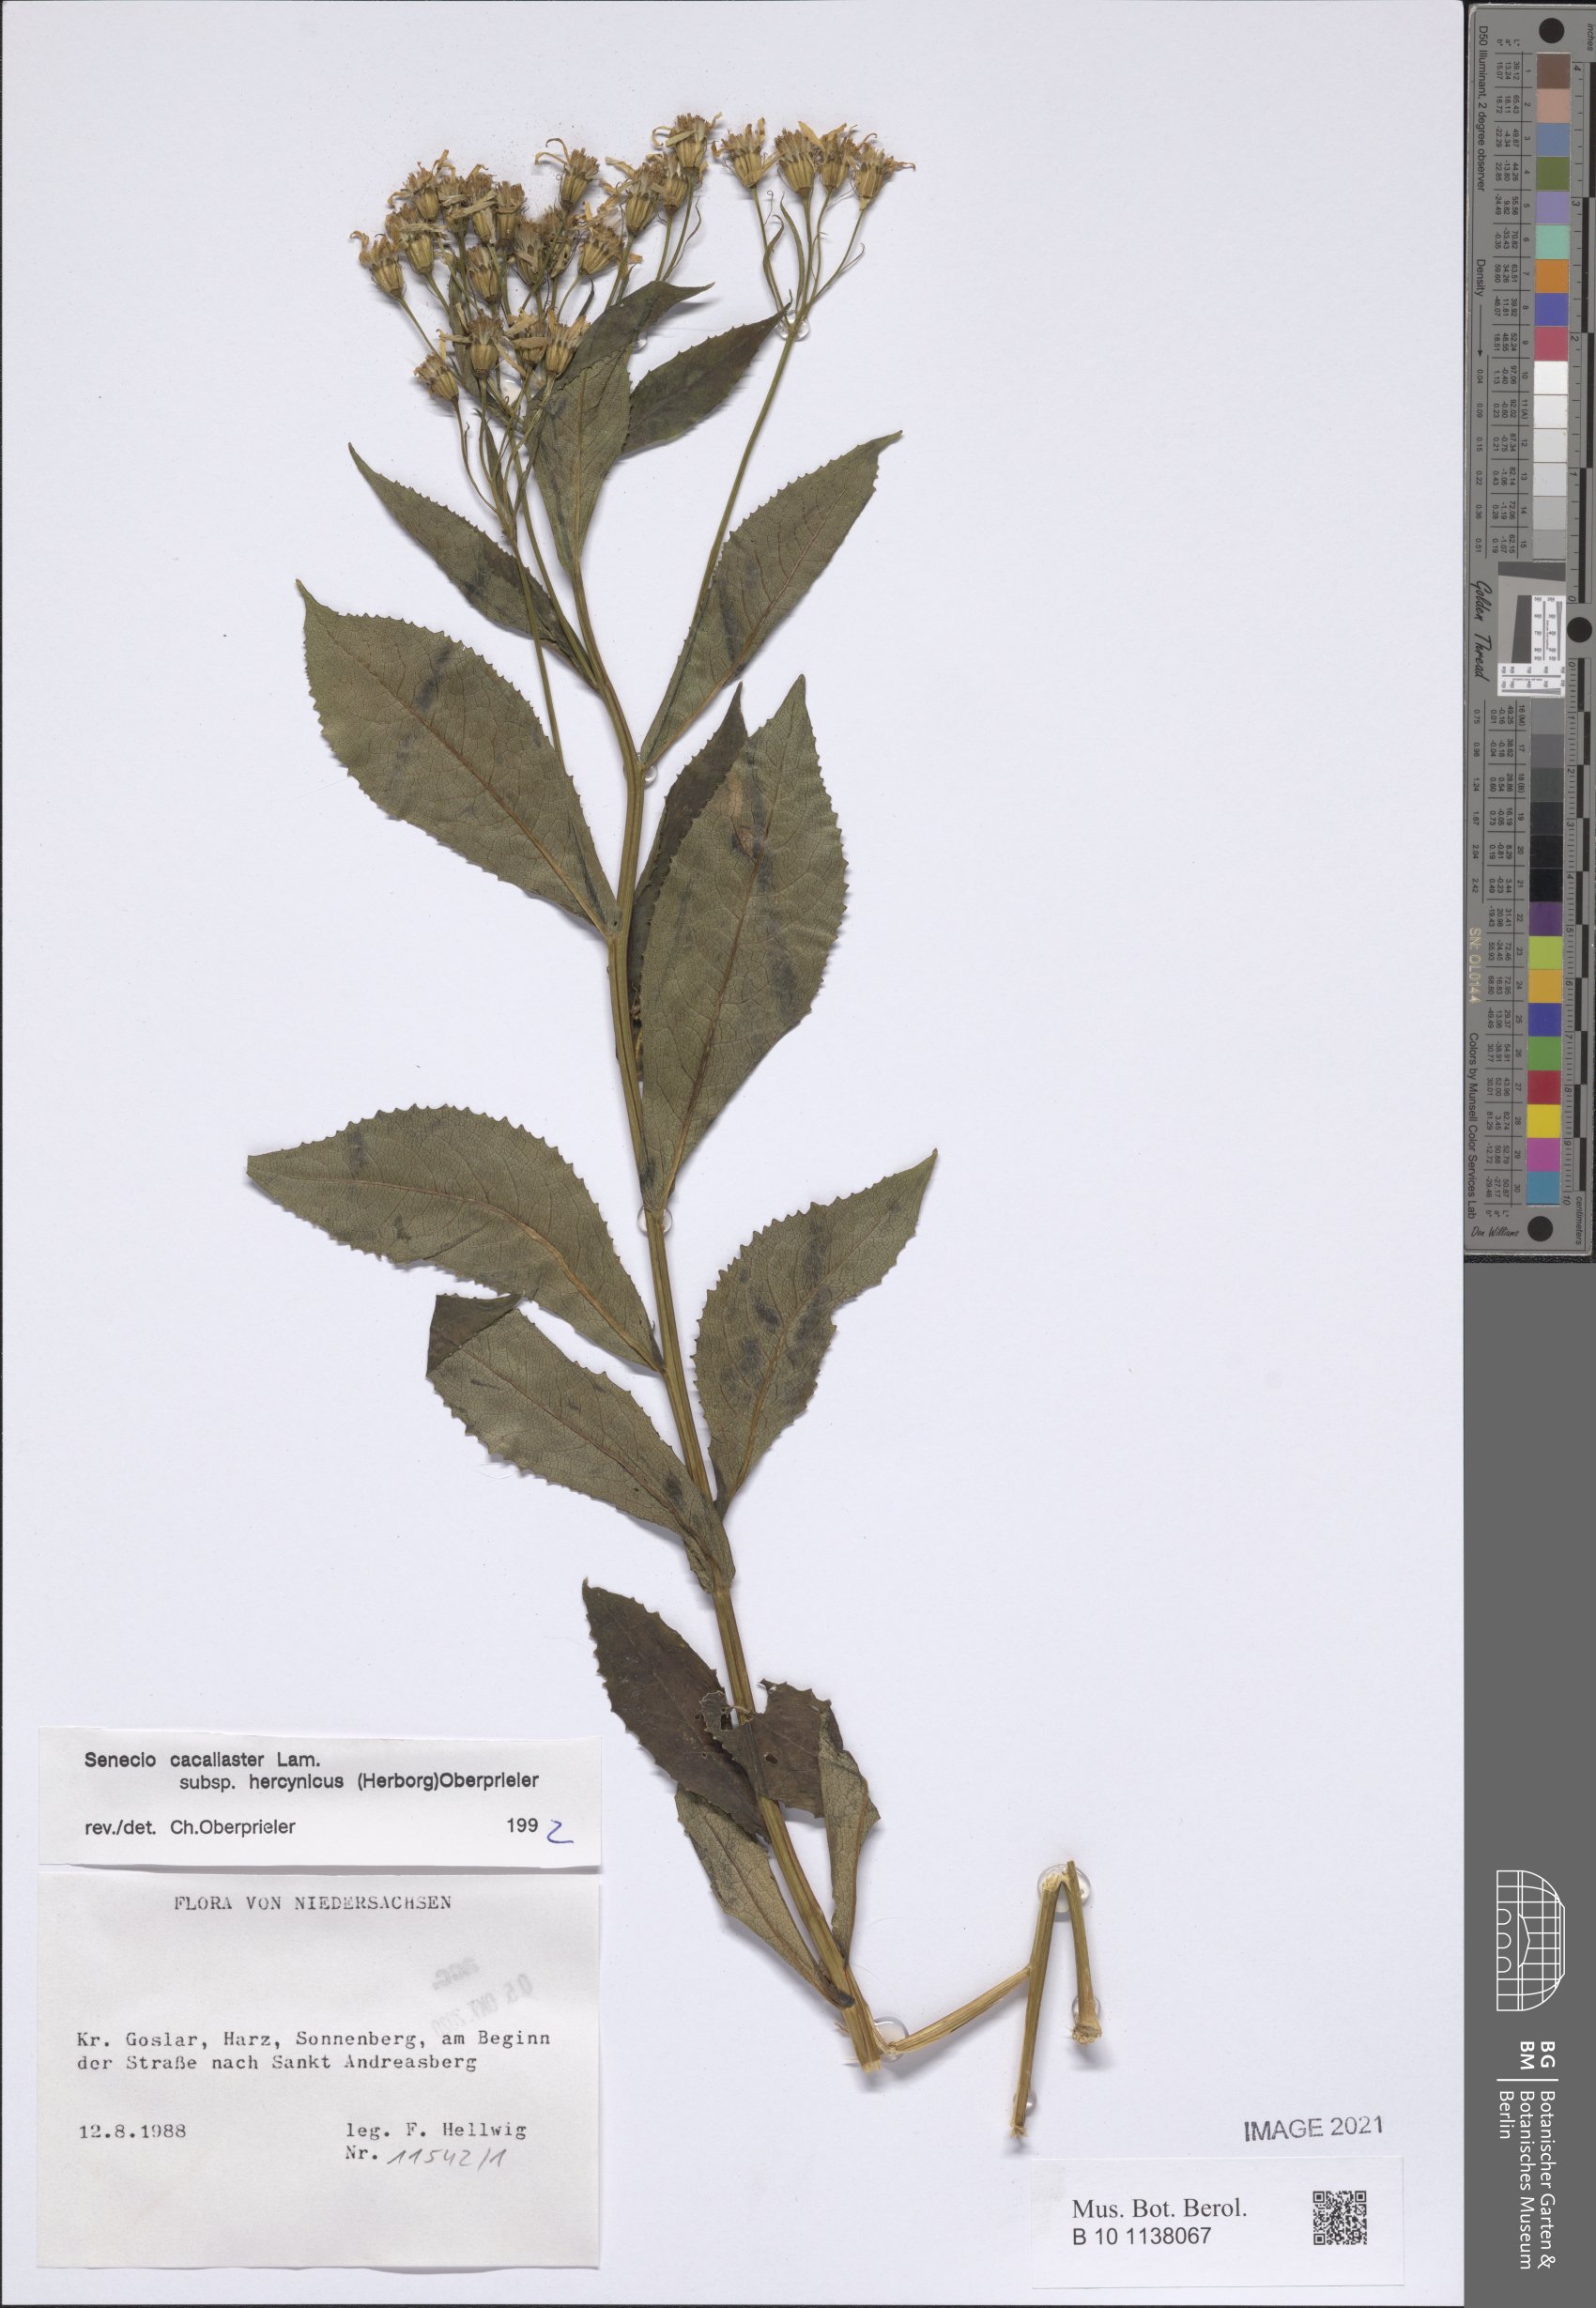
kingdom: Plantae
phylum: Tracheophyta
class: Magnoliopsida
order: Asterales
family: Asteraceae
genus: Senecio
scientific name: Senecio hercynicus
